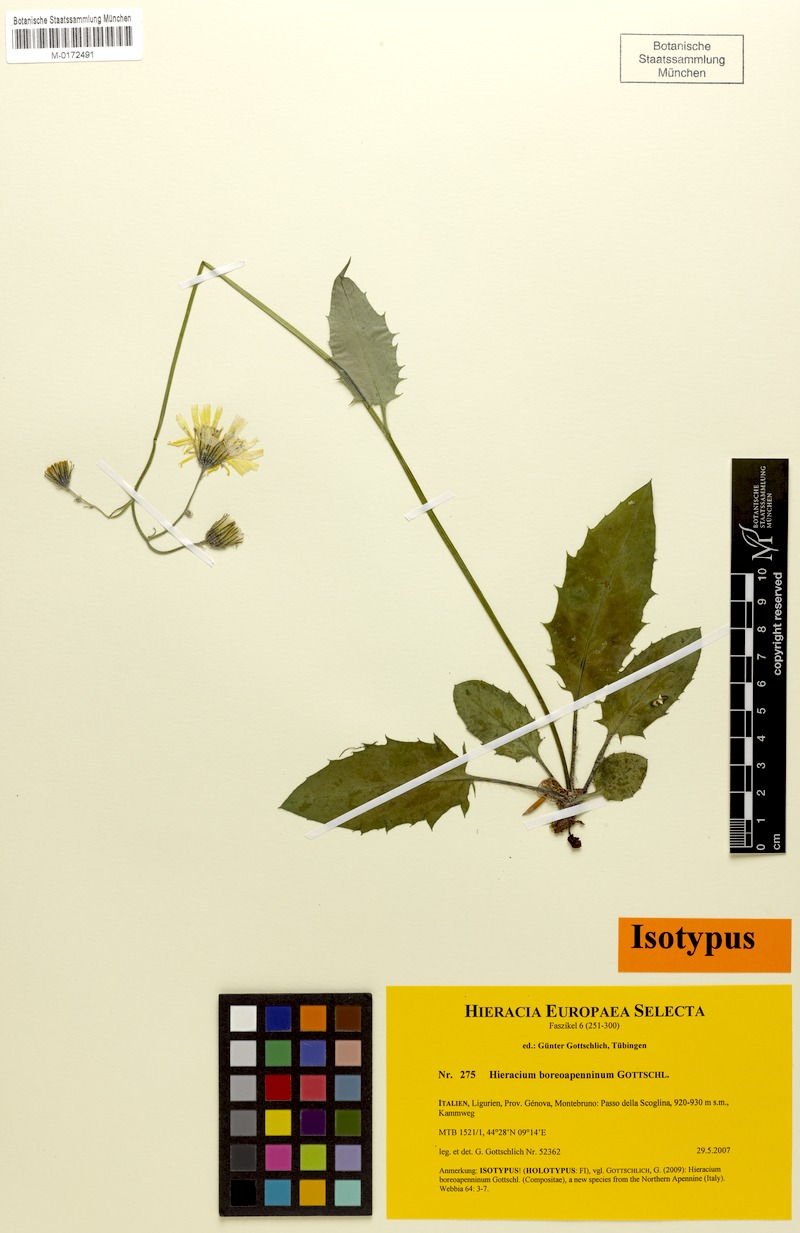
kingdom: Plantae
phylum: Tracheophyta
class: Magnoliopsida
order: Asterales
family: Asteraceae
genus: Hieracium
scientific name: Hieracium boreoapenninum
